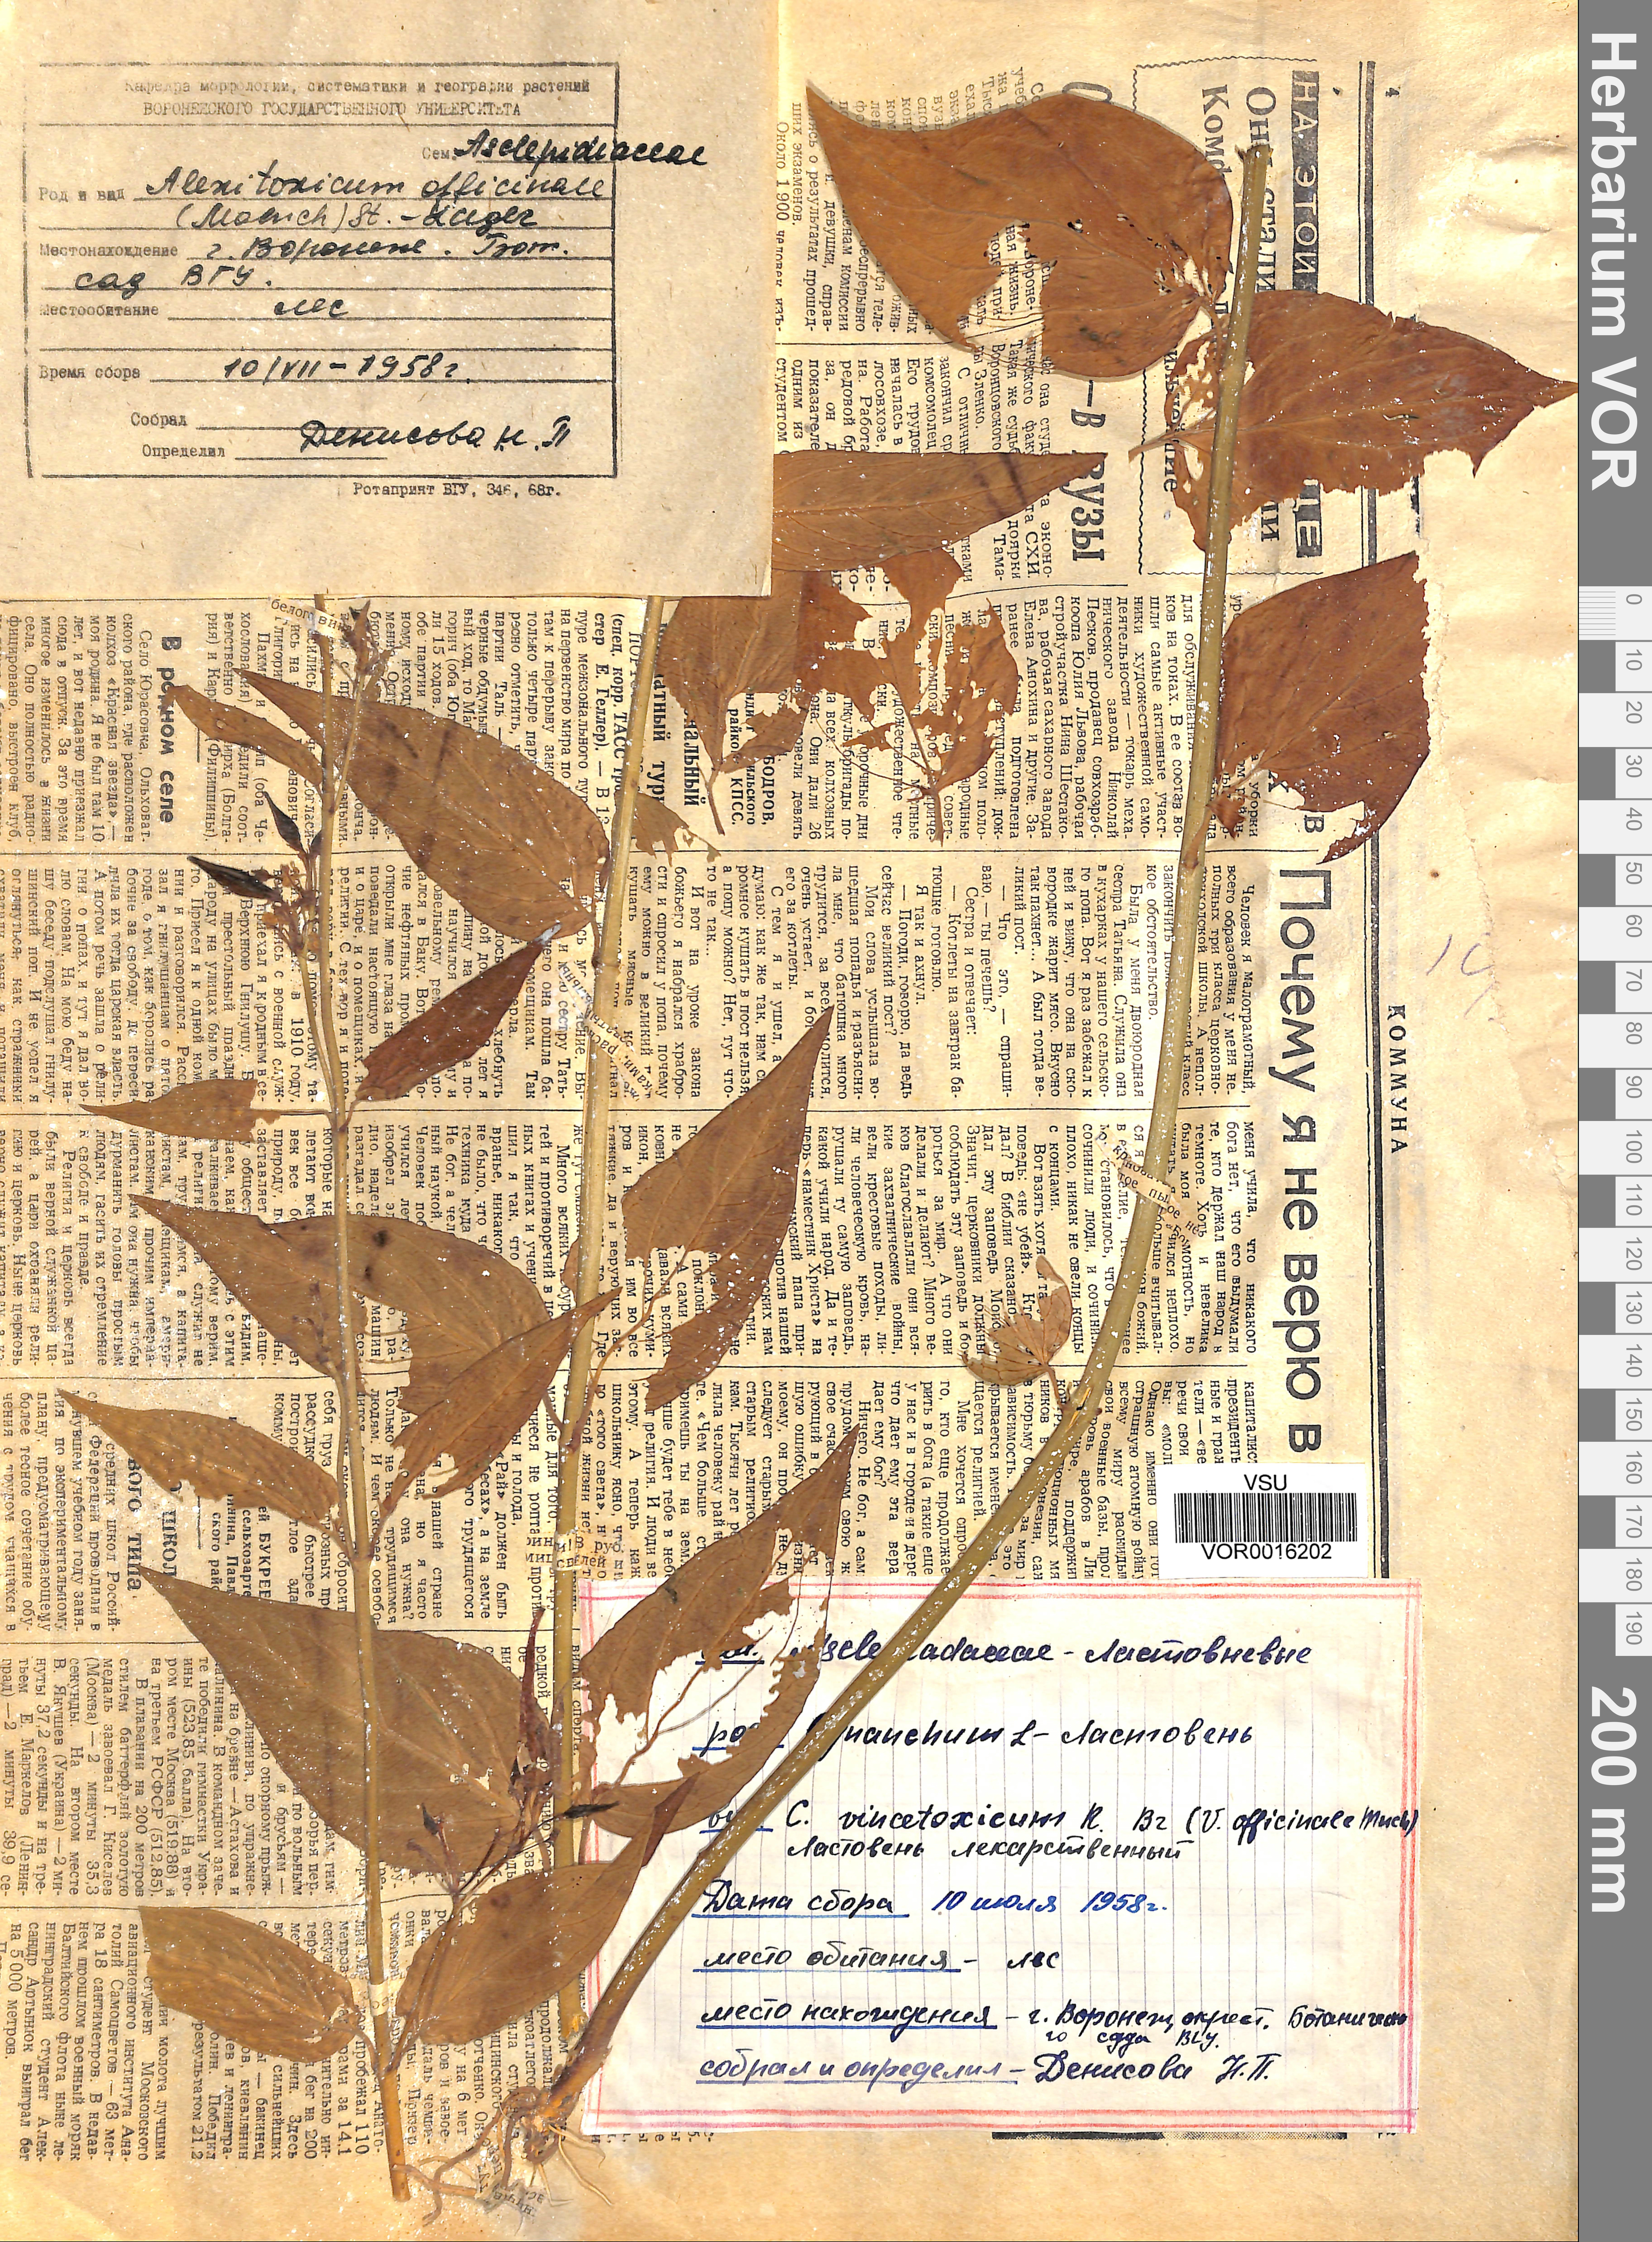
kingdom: Plantae
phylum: Tracheophyta
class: Magnoliopsida
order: Gentianales
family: Apocynaceae
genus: Vincetoxicum
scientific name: Vincetoxicum hirundinaria
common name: White swallowwort
